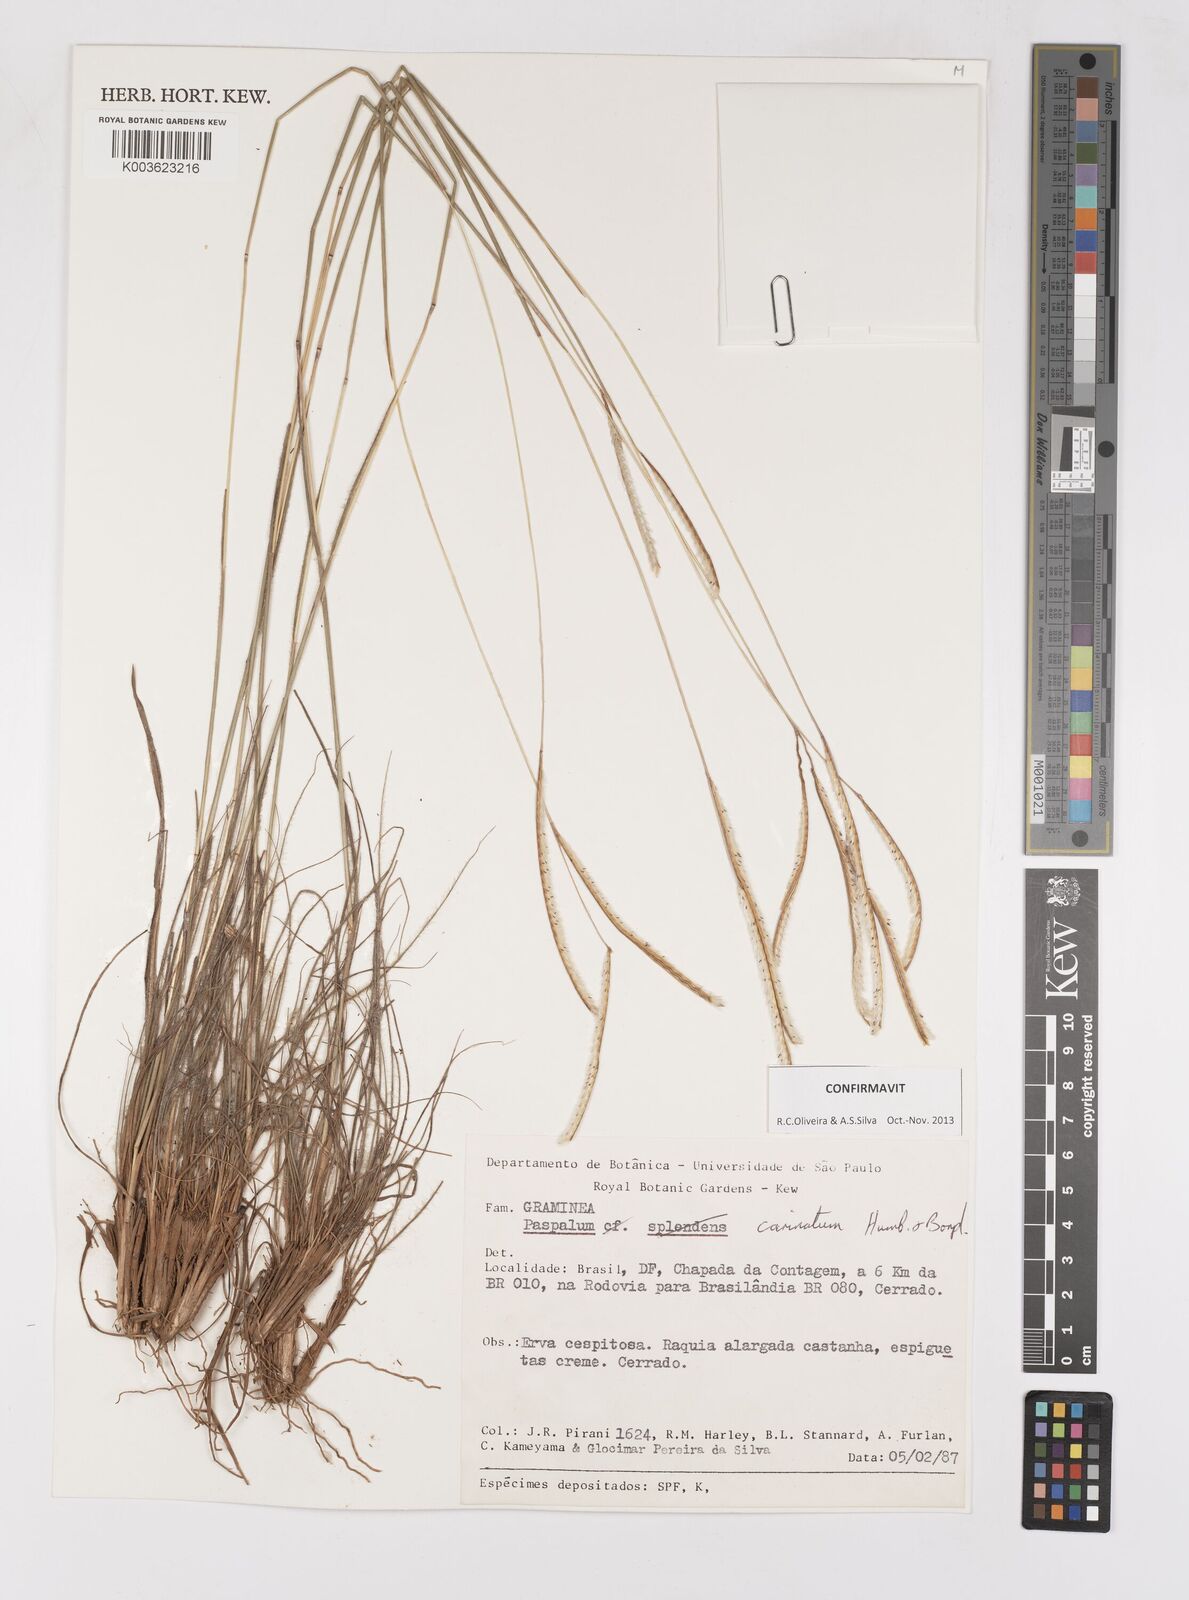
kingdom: Plantae
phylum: Tracheophyta
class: Liliopsida
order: Poales
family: Poaceae
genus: Paspalum
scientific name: Paspalum carinatum
